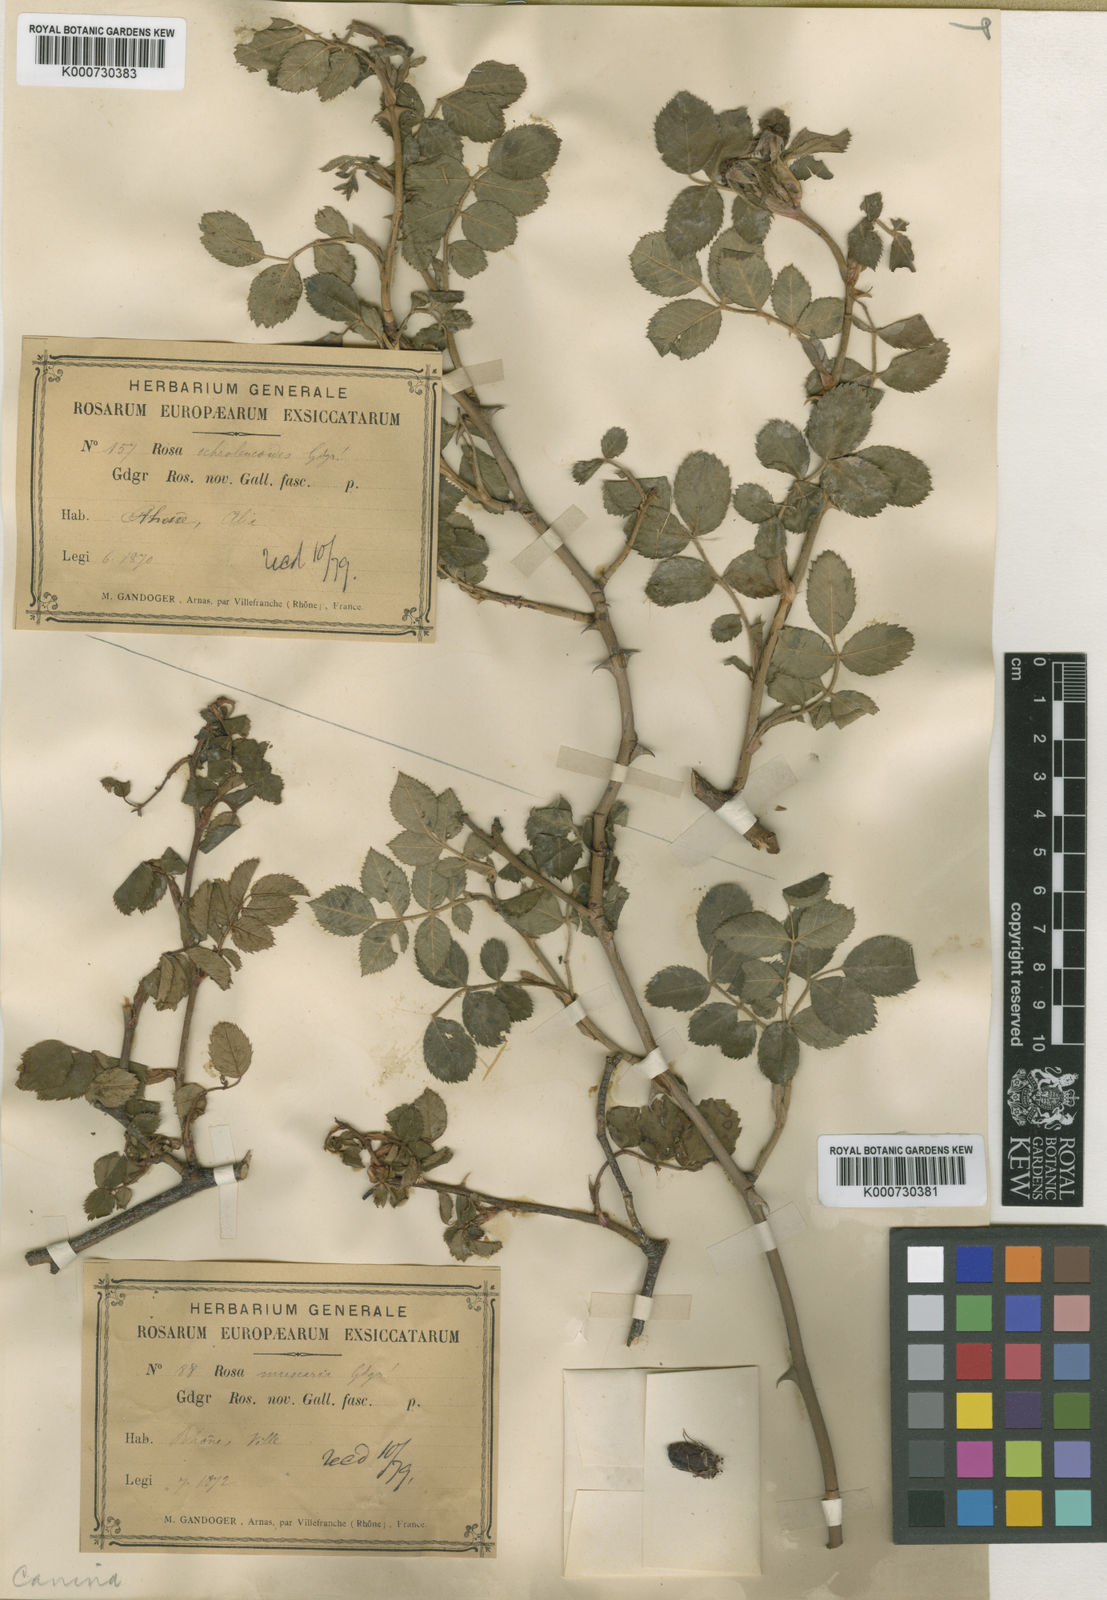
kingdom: Plantae
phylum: Tracheophyta
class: Magnoliopsida
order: Rosales
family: Rosaceae
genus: Rosa
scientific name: Rosa canina
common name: Dog rose
